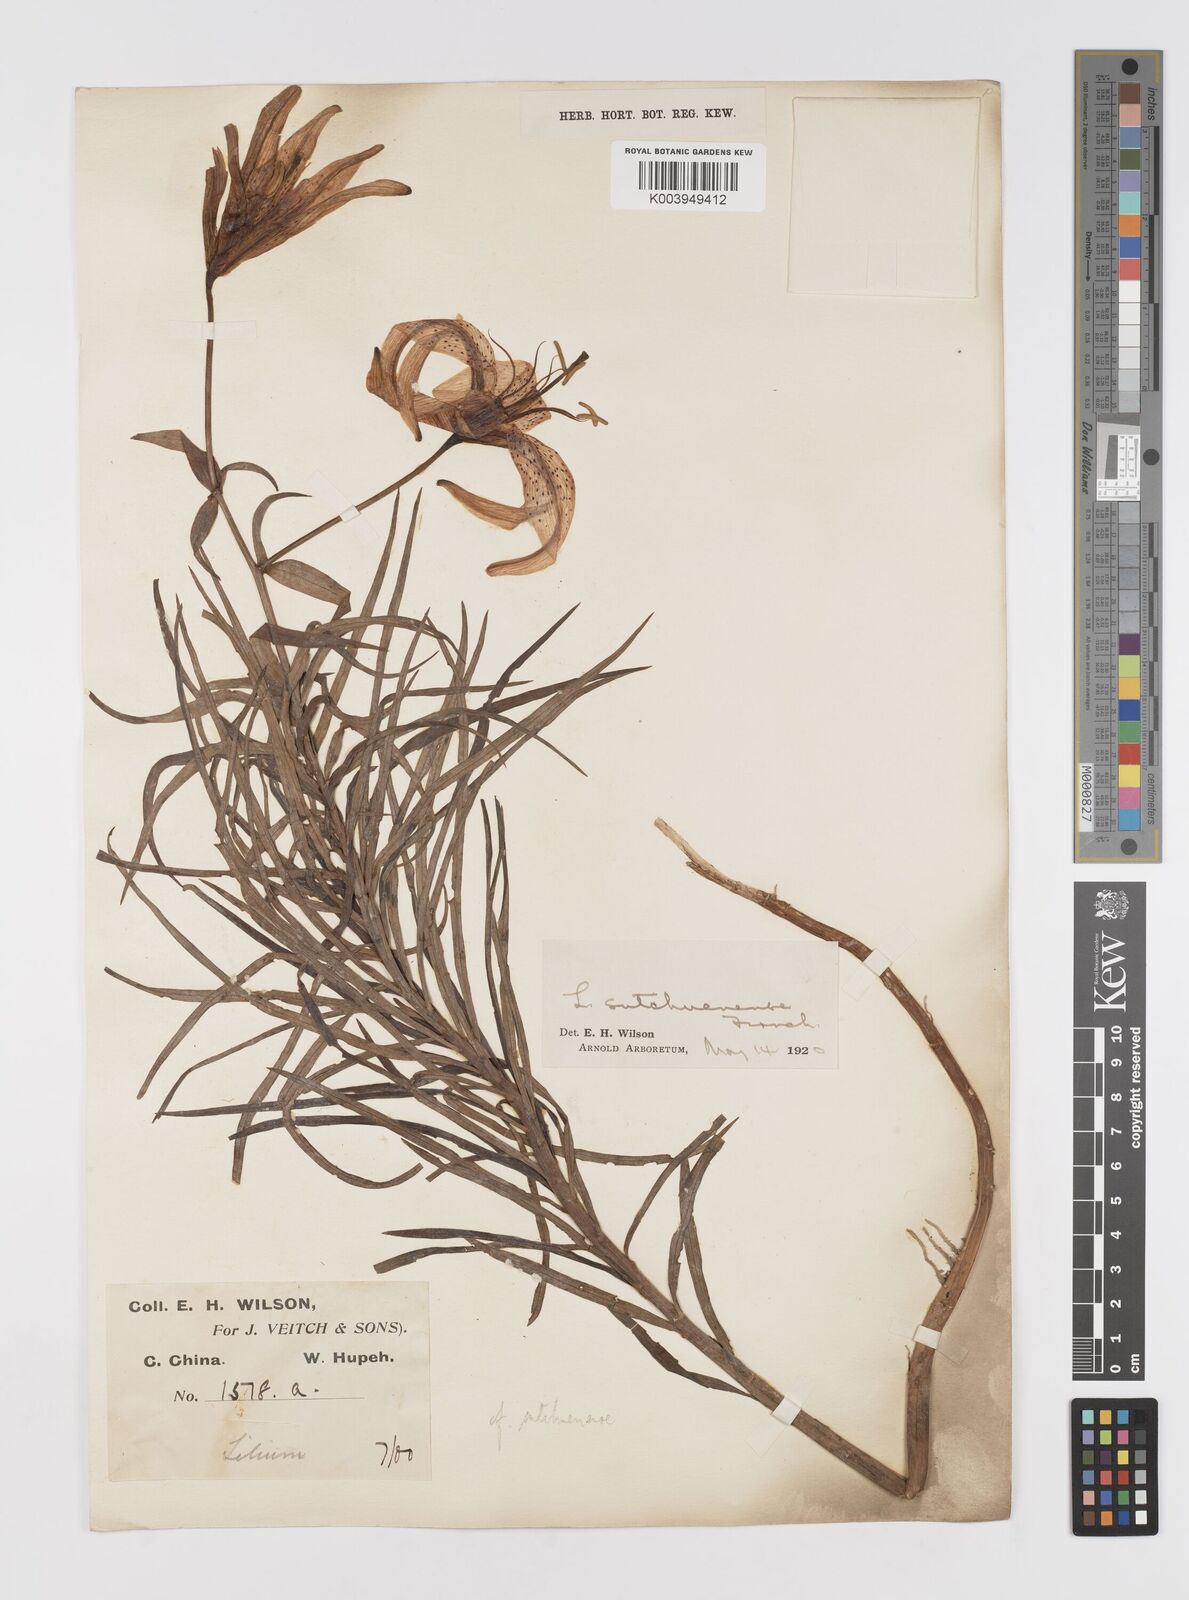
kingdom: Plantae
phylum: Tracheophyta
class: Liliopsida
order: Liliales
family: Liliaceae
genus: Lilium
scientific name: Lilium davidii
